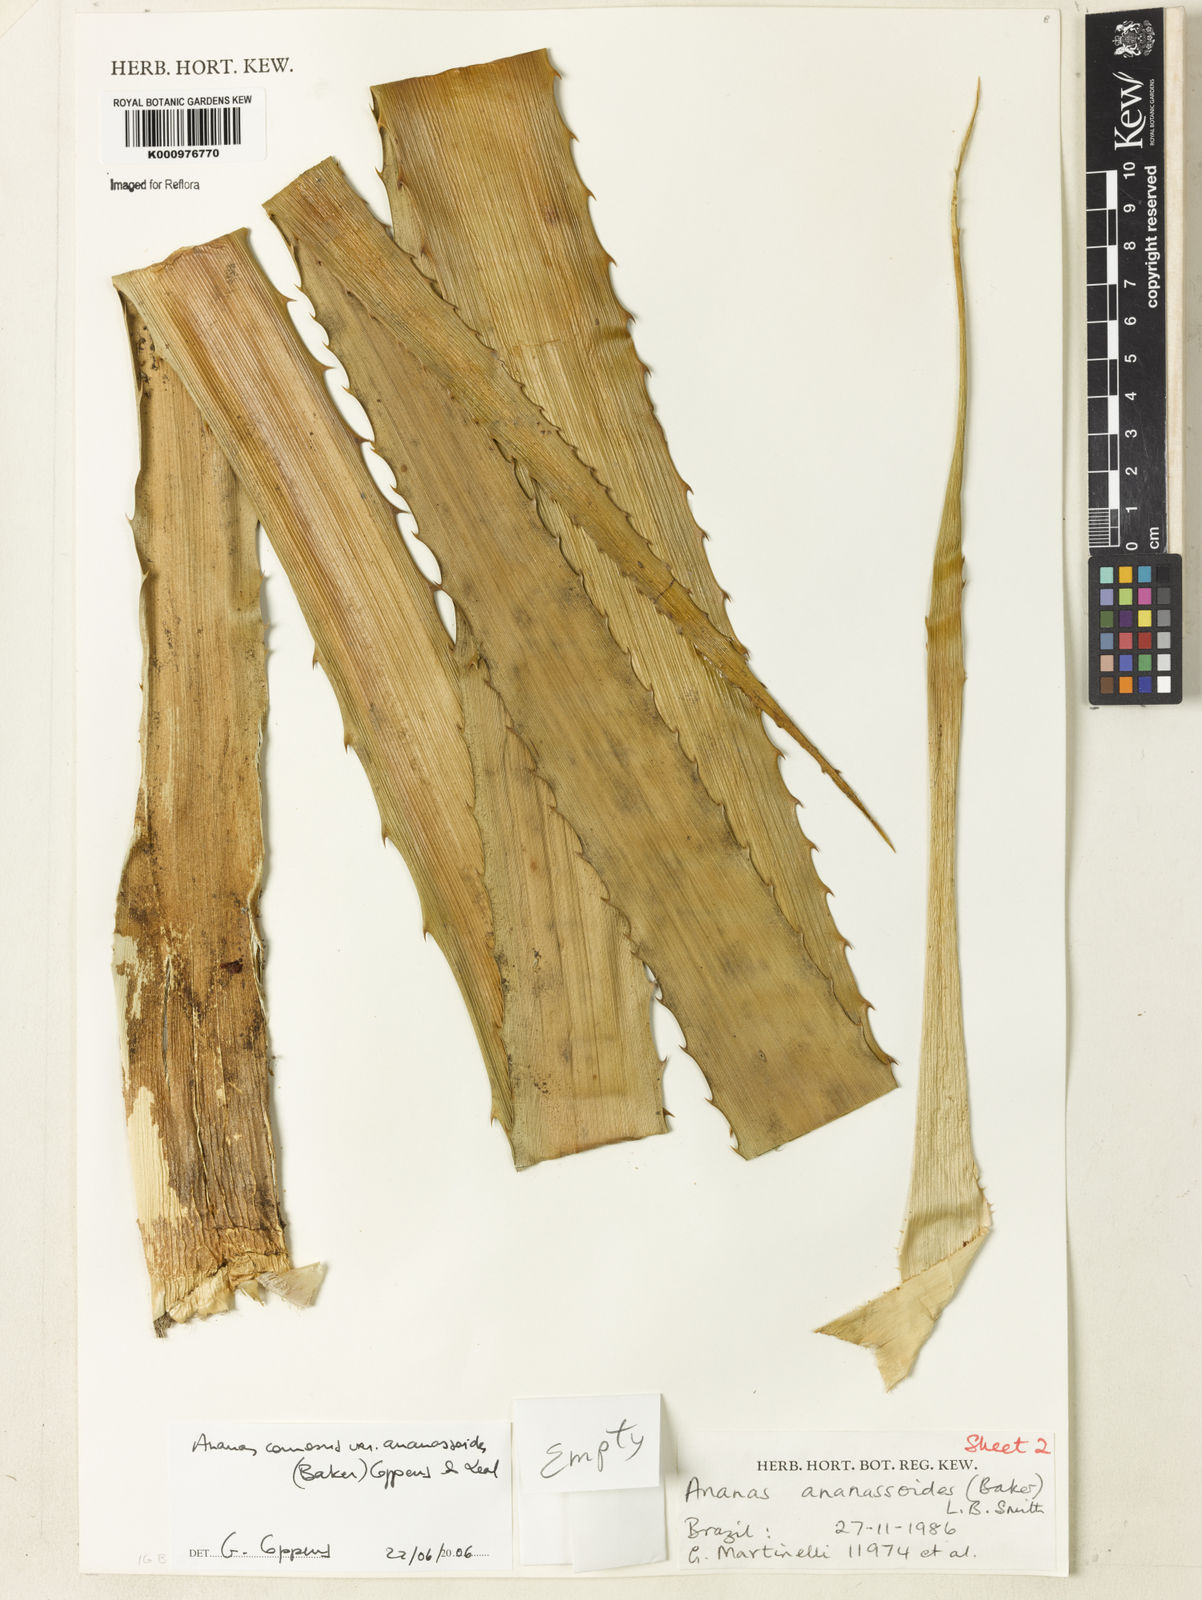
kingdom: Plantae
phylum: Tracheophyta
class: Liliopsida
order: Poales
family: Bromeliaceae
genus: Ananas
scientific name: Ananas comosus
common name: Pineapple
